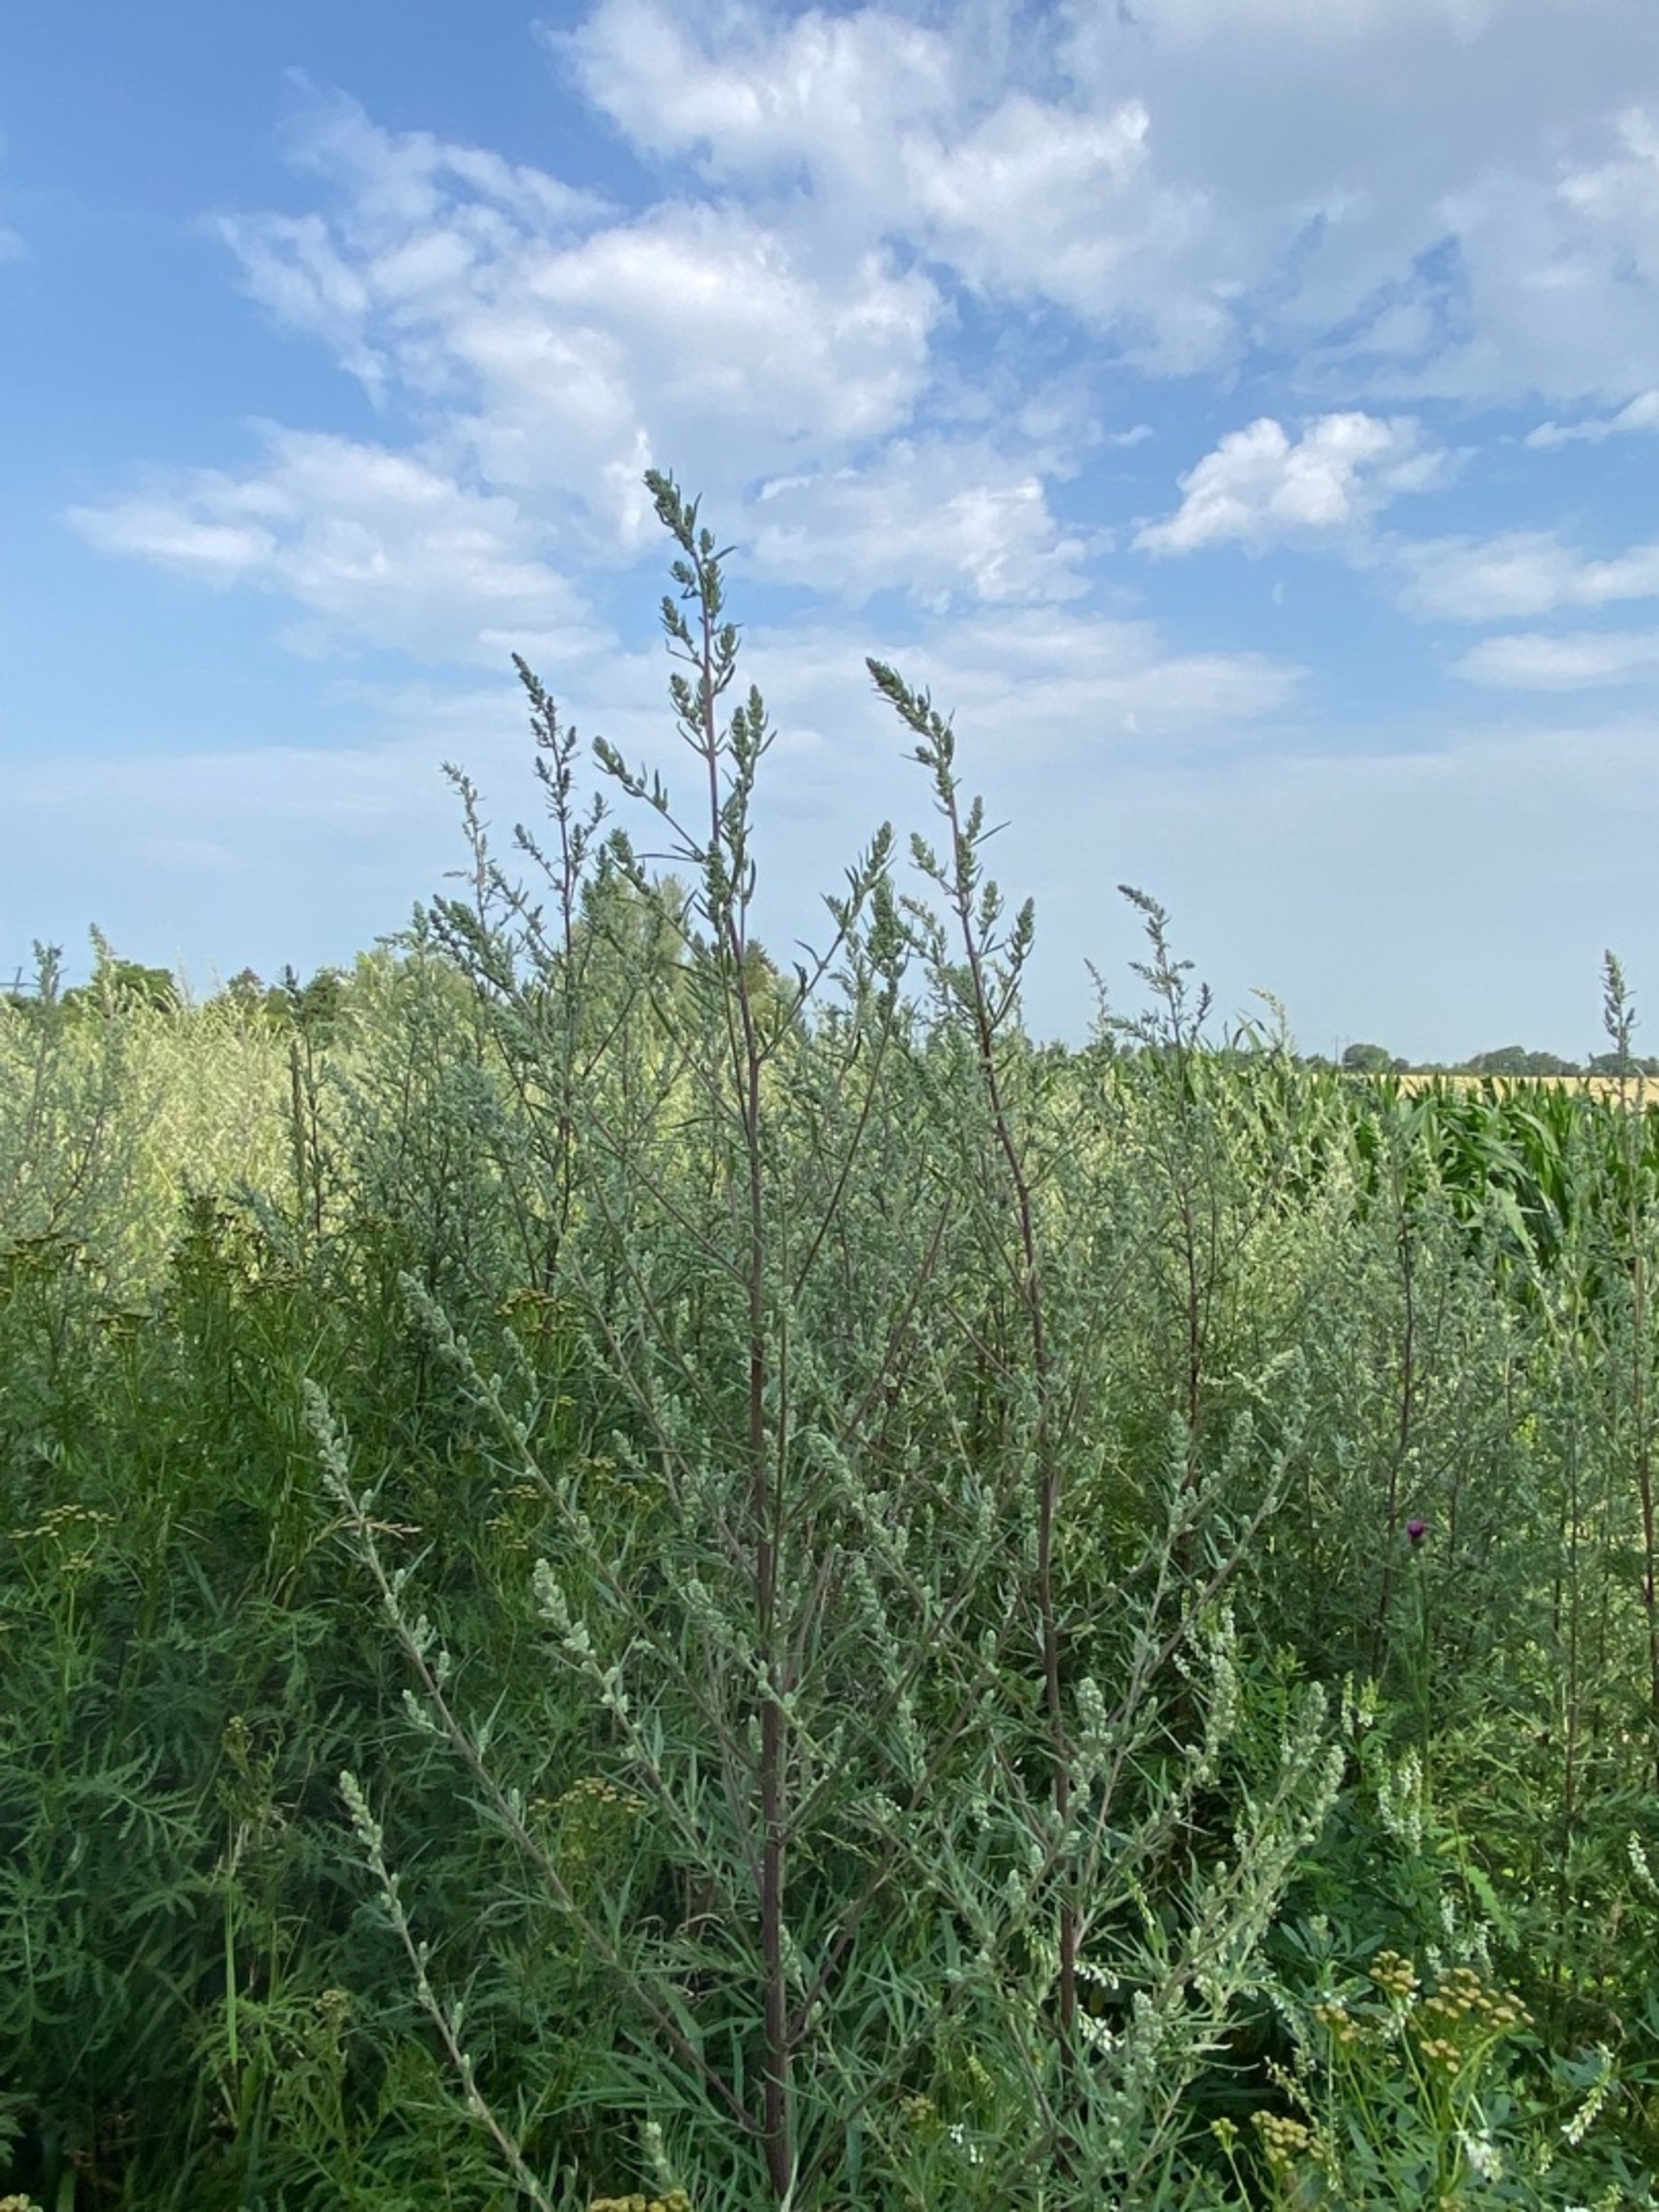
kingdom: Plantae
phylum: Tracheophyta
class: Magnoliopsida
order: Asterales
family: Asteraceae
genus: Artemisia
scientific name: Artemisia vulgaris
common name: Grå-bynke
